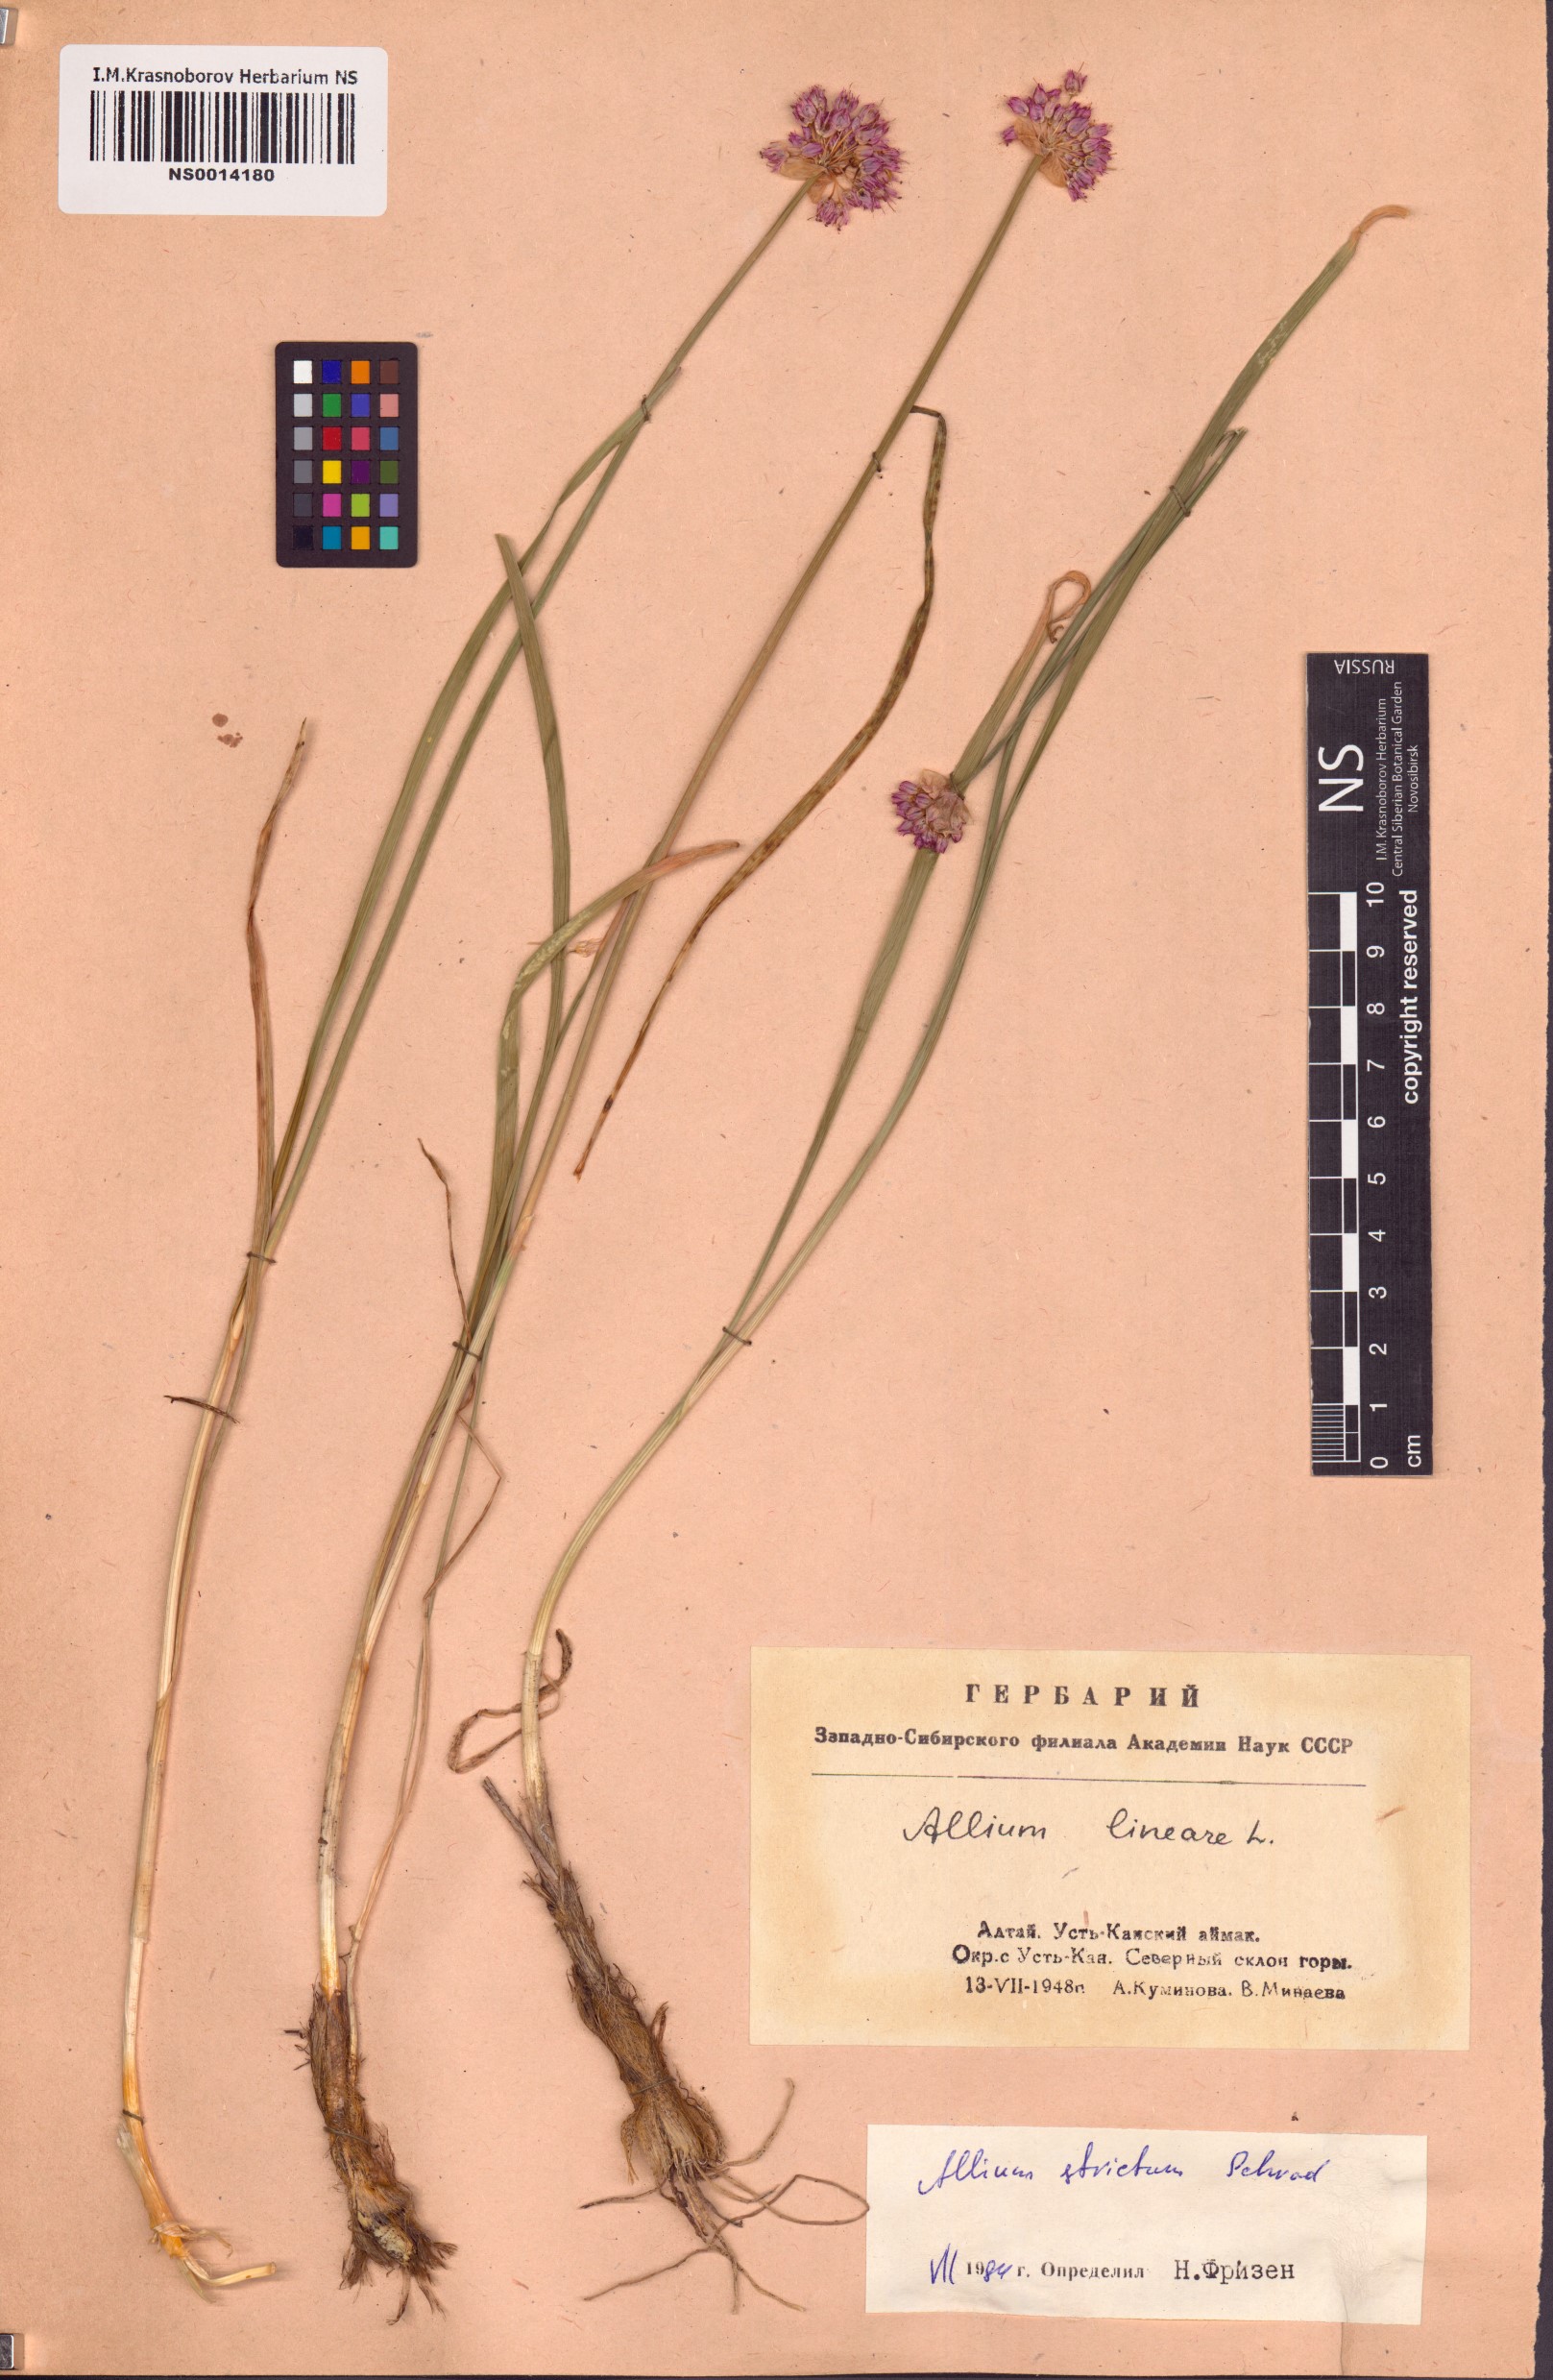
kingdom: Plantae
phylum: Tracheophyta
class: Liliopsida
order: Asparagales
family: Amaryllidaceae
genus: Allium
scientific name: Allium strictum
